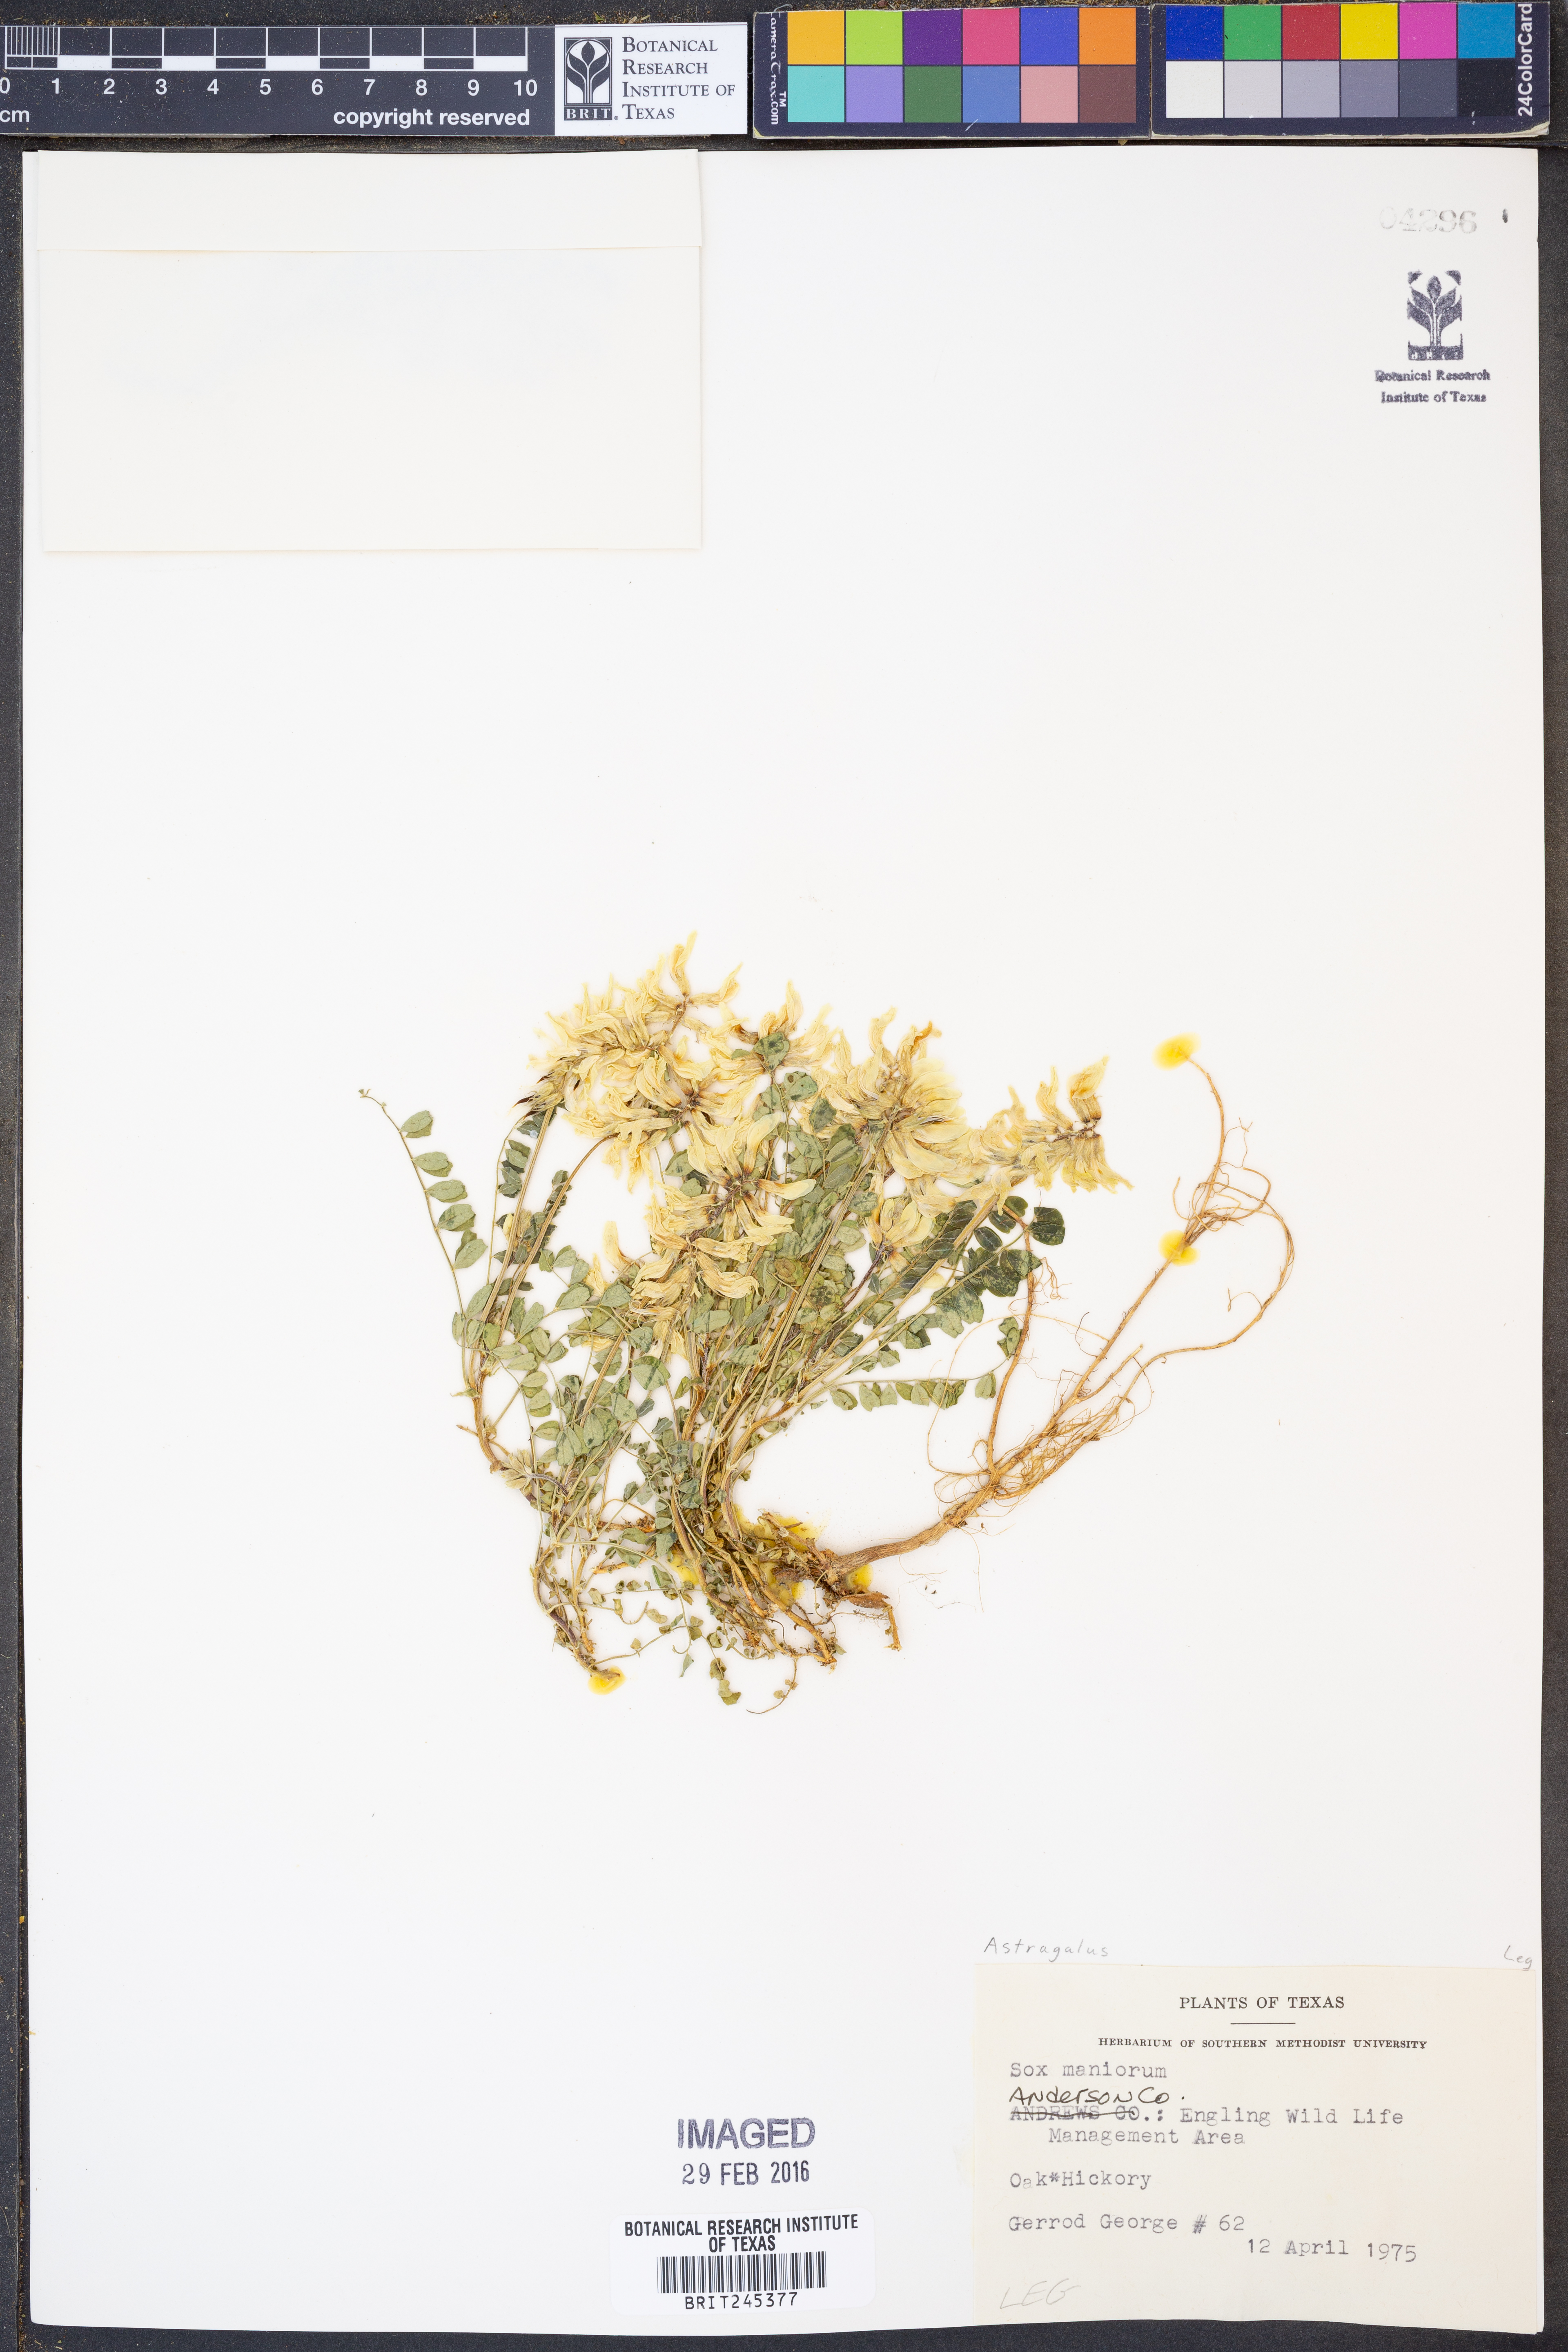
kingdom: Plantae
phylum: Tracheophyta
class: Magnoliopsida
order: Fabales
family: Fabaceae
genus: Astragalus
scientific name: Astragalus soxmaniorum
